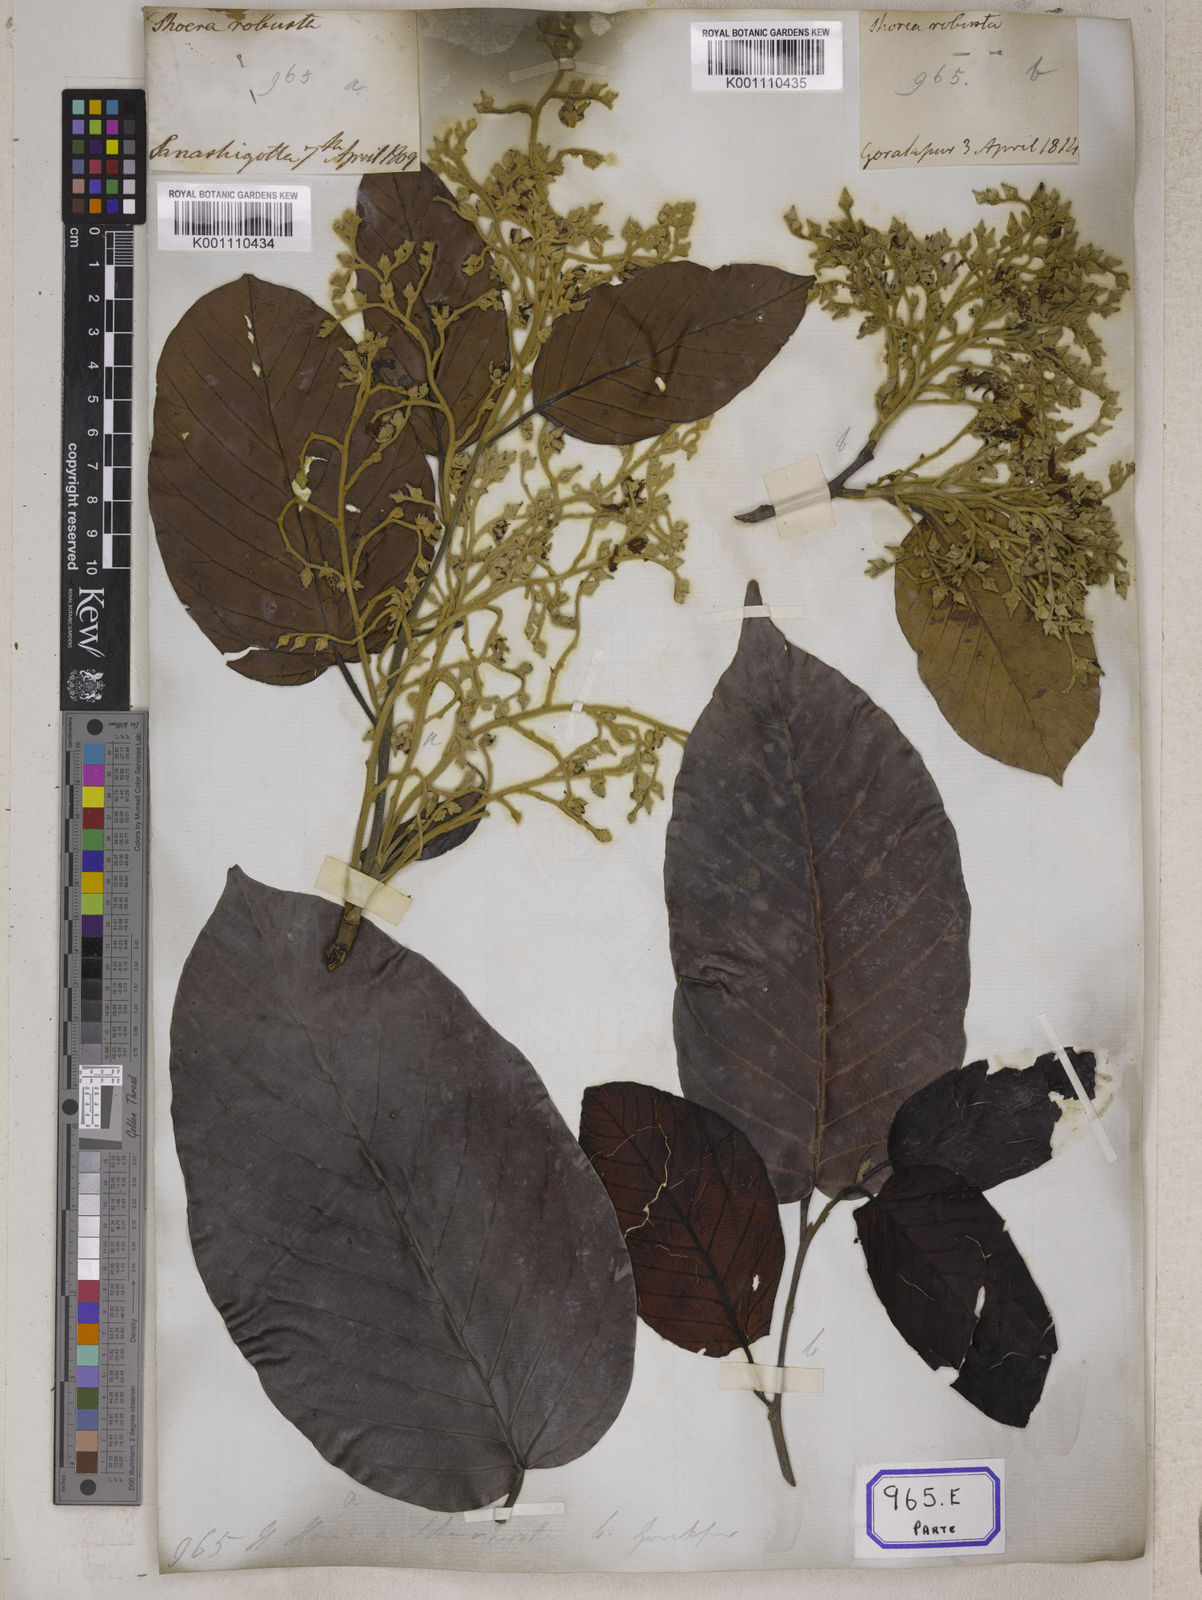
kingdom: Plantae
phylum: Tracheophyta
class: Magnoliopsida
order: Malvales
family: Dipterocarpaceae
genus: Shorea
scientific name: Shorea
